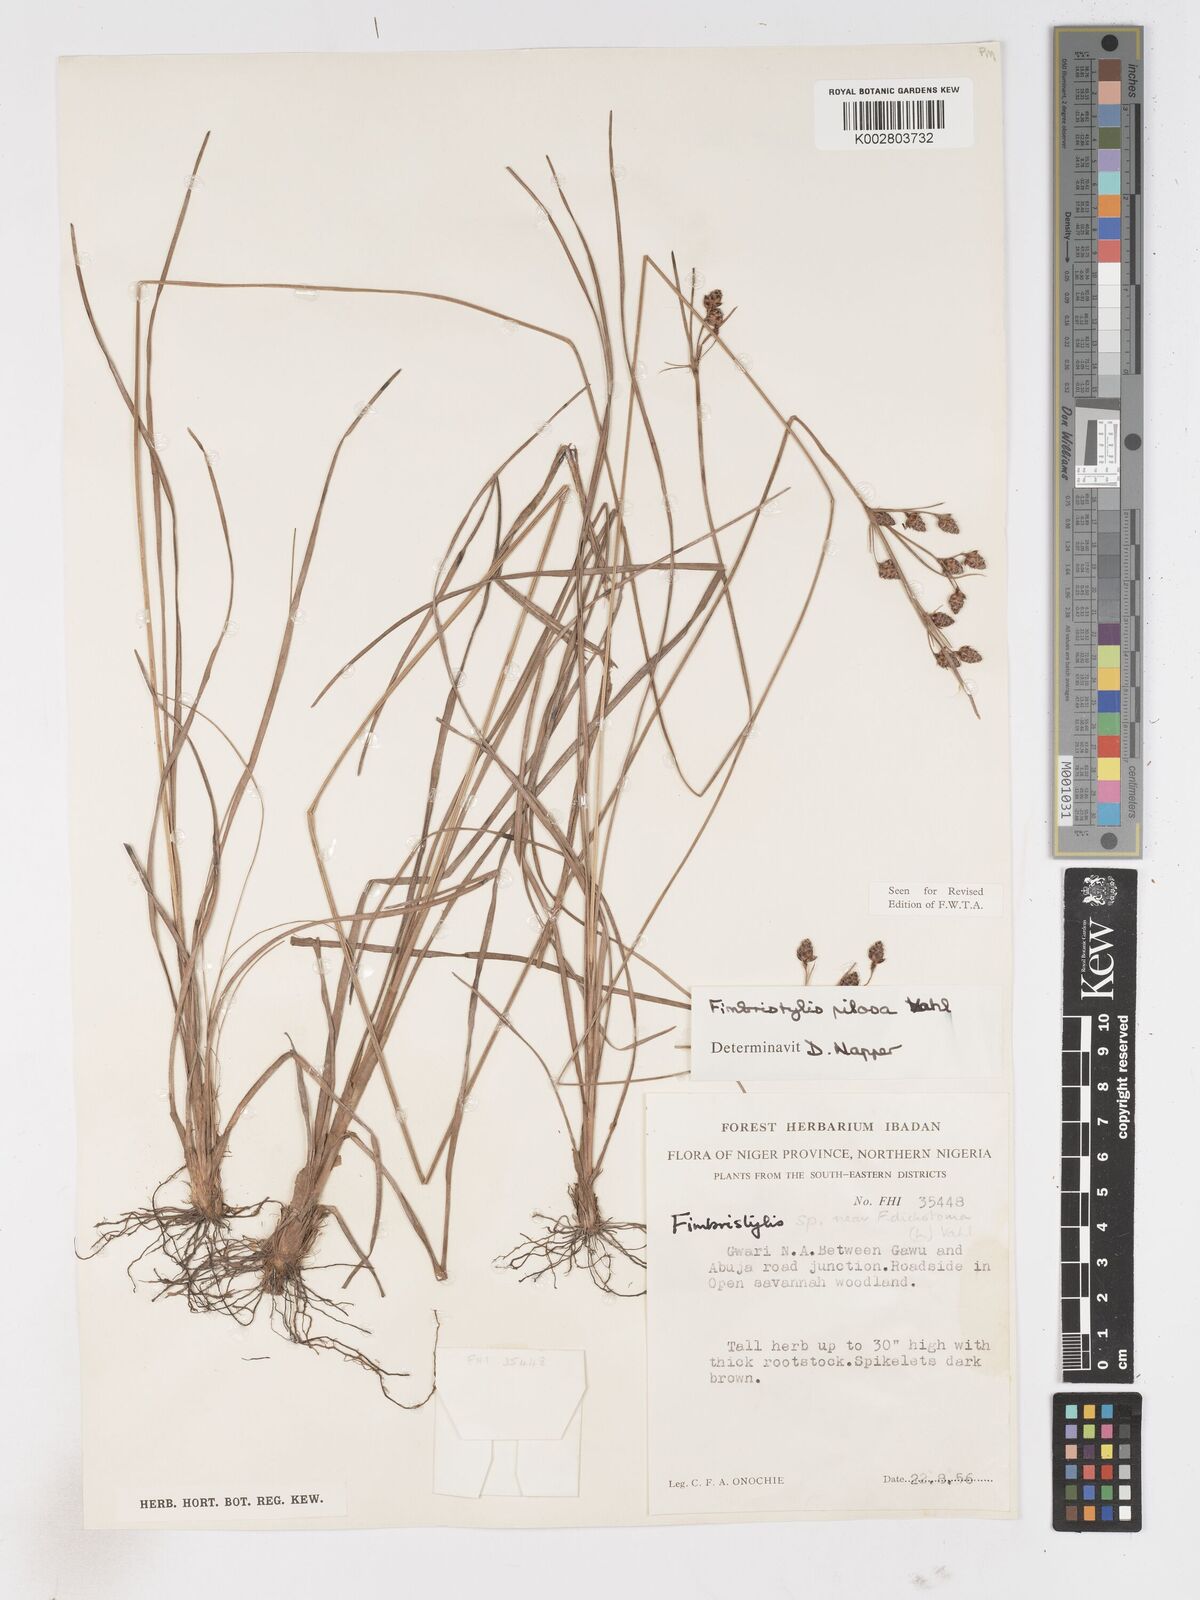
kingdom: Plantae
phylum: Tracheophyta
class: Liliopsida
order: Poales
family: Cyperaceae
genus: Fimbristylis
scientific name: Fimbristylis pilosa
